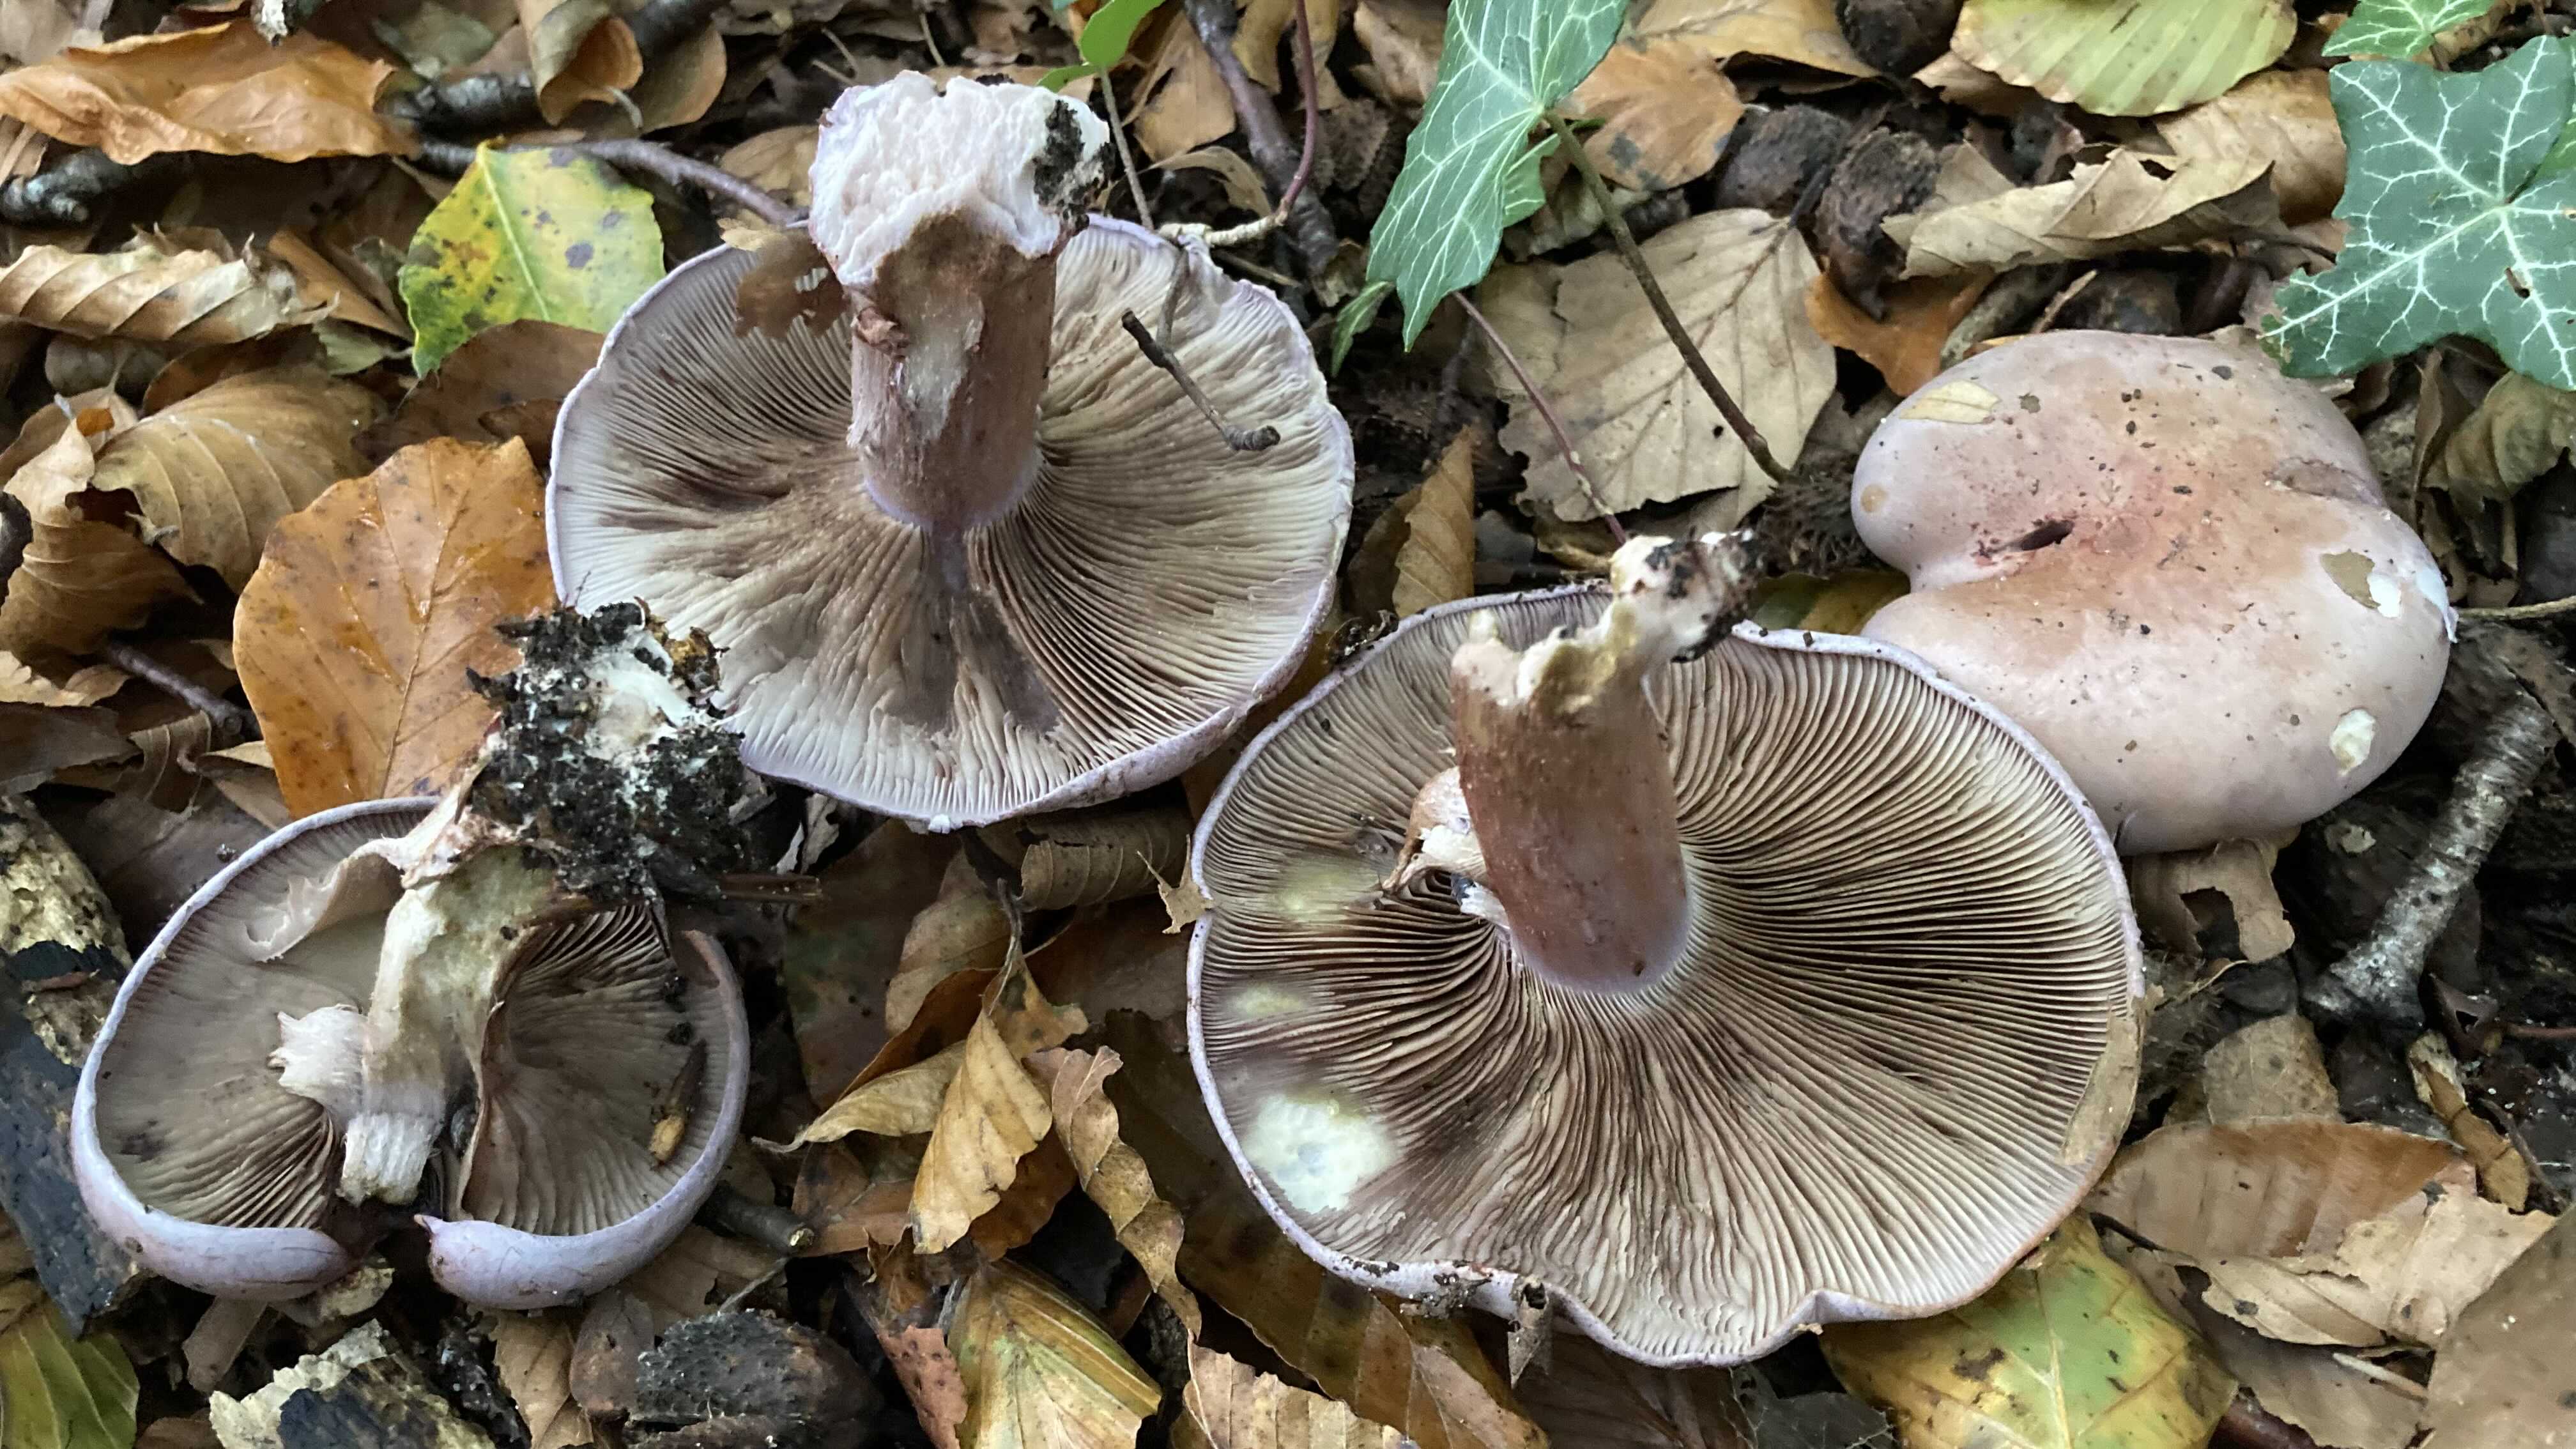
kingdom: Fungi
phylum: Basidiomycota
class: Agaricomycetes
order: Agaricales
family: Cortinariaceae
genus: Calonarius
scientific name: Calonarius rufo-olivaceus
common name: firefarvet slørhat
